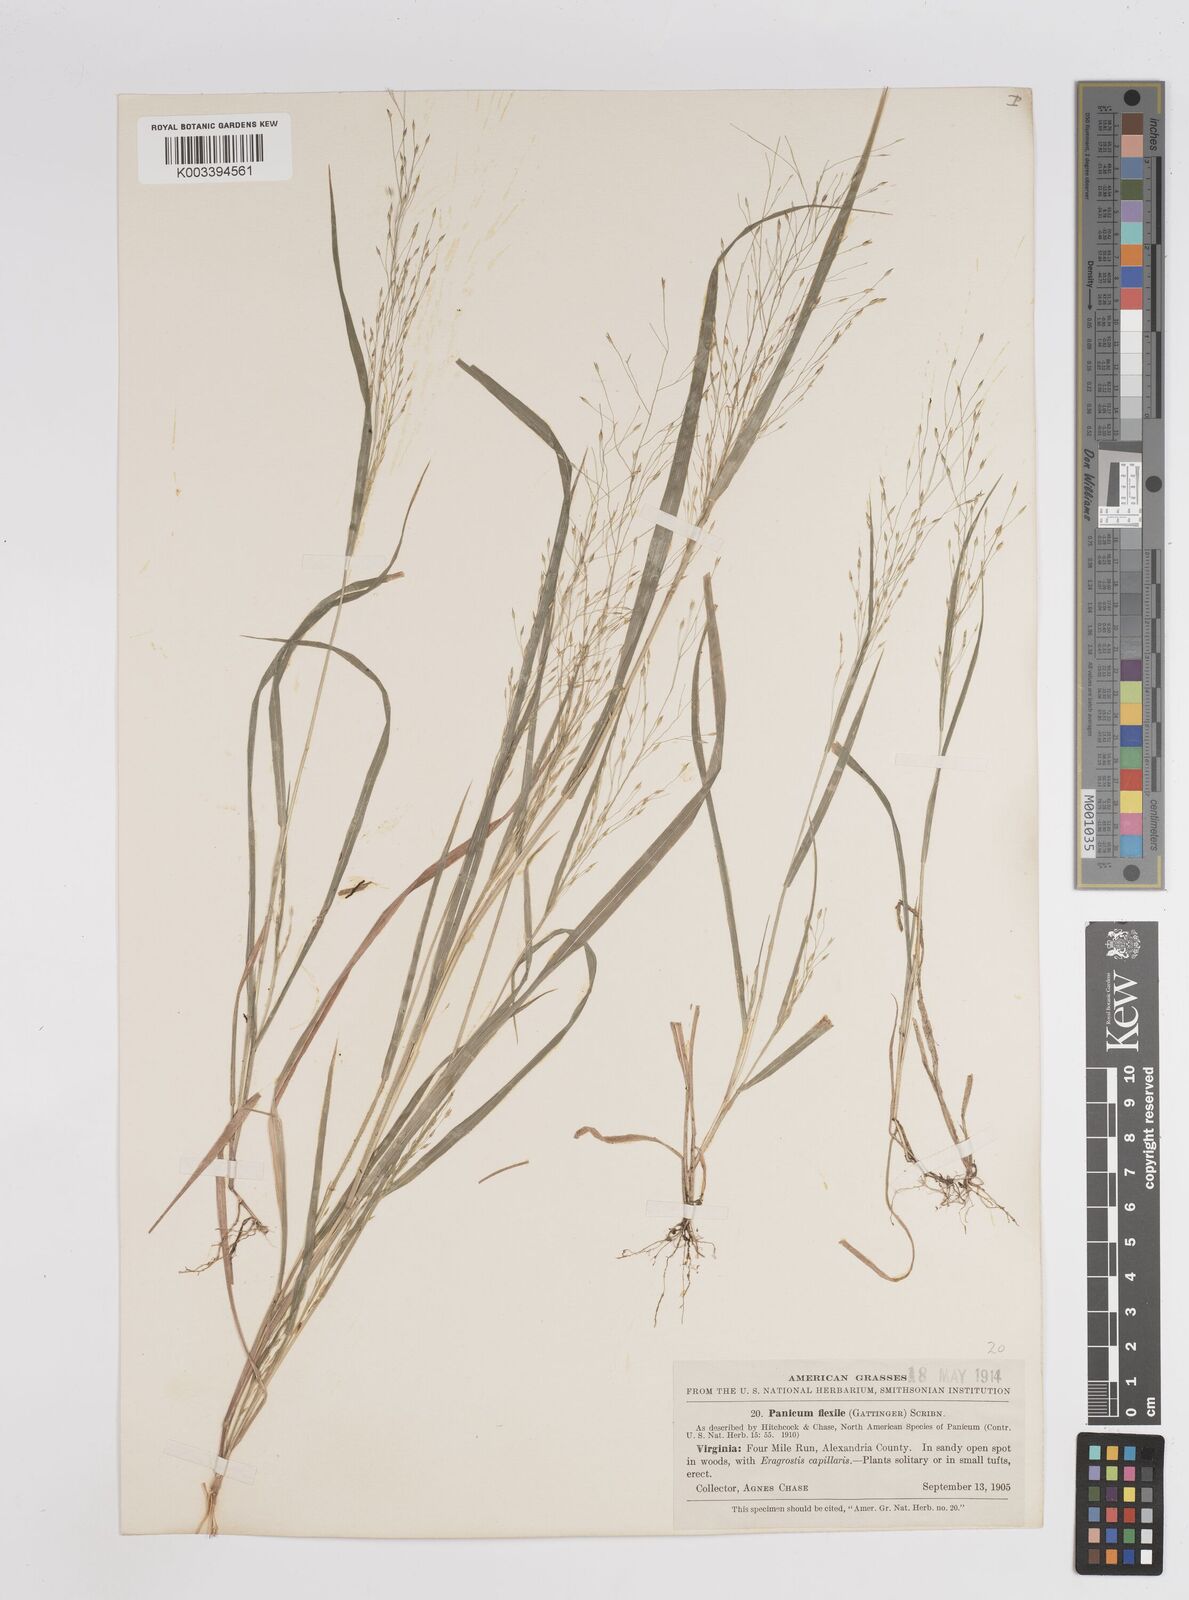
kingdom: Plantae
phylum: Tracheophyta
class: Liliopsida
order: Poales
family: Poaceae
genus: Panicum
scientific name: Panicum flexile
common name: Wiry panicgrass
